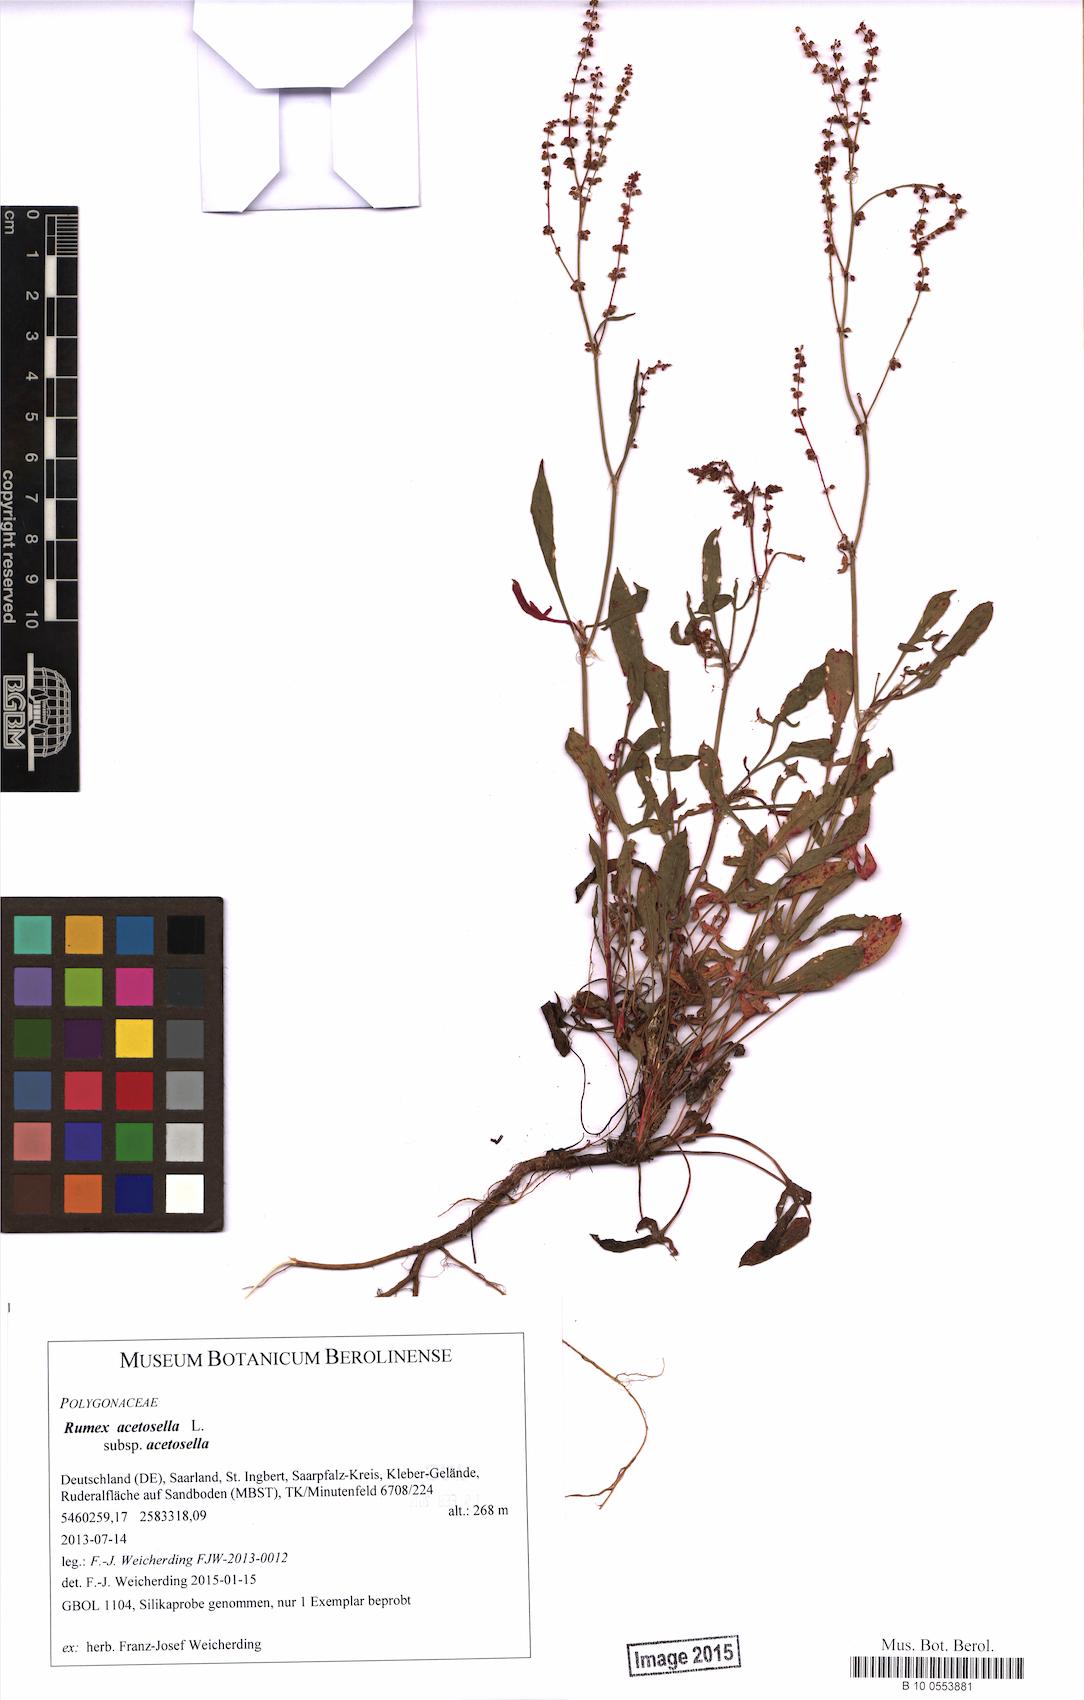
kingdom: Plantae
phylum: Tracheophyta
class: Magnoliopsida
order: Caryophyllales
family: Polygonaceae
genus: Rumex
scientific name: Rumex acetosella
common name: Common sheep sorrel
